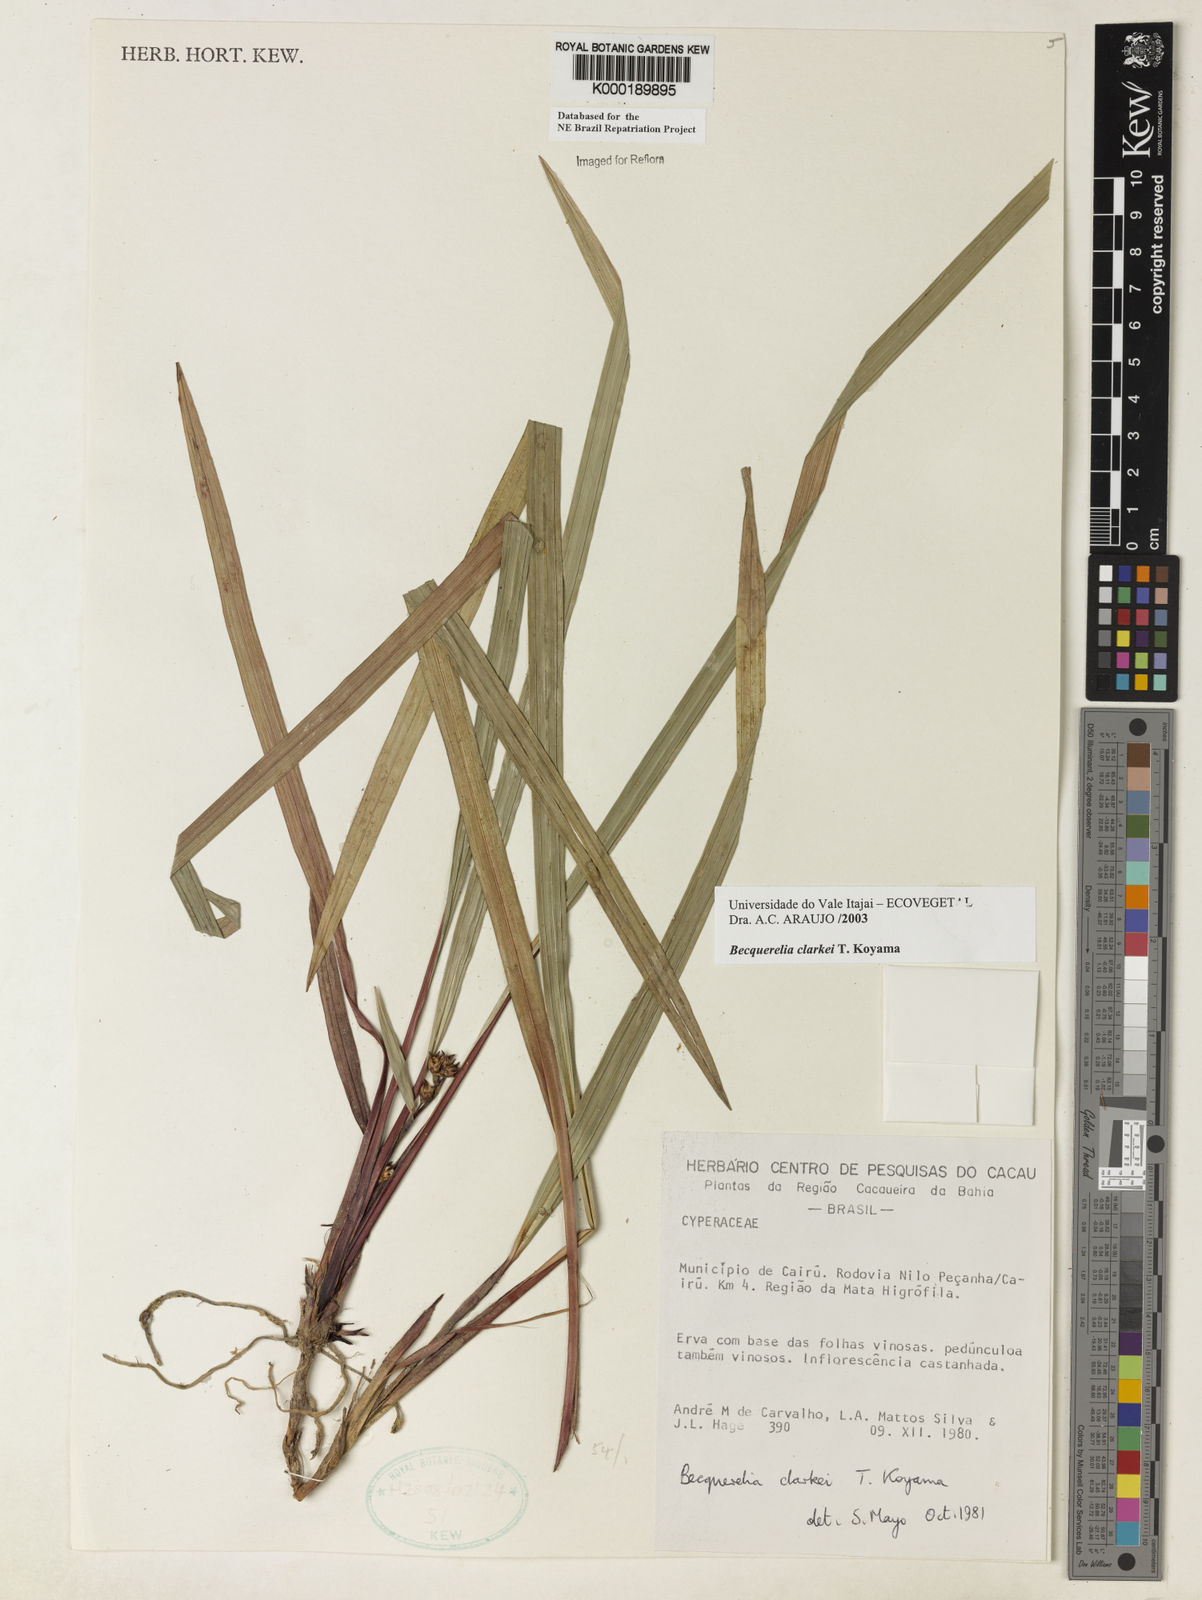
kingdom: Plantae
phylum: Tracheophyta
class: Liliopsida
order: Poales
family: Cyperaceae
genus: Becquerelia
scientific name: Becquerelia clarkei
